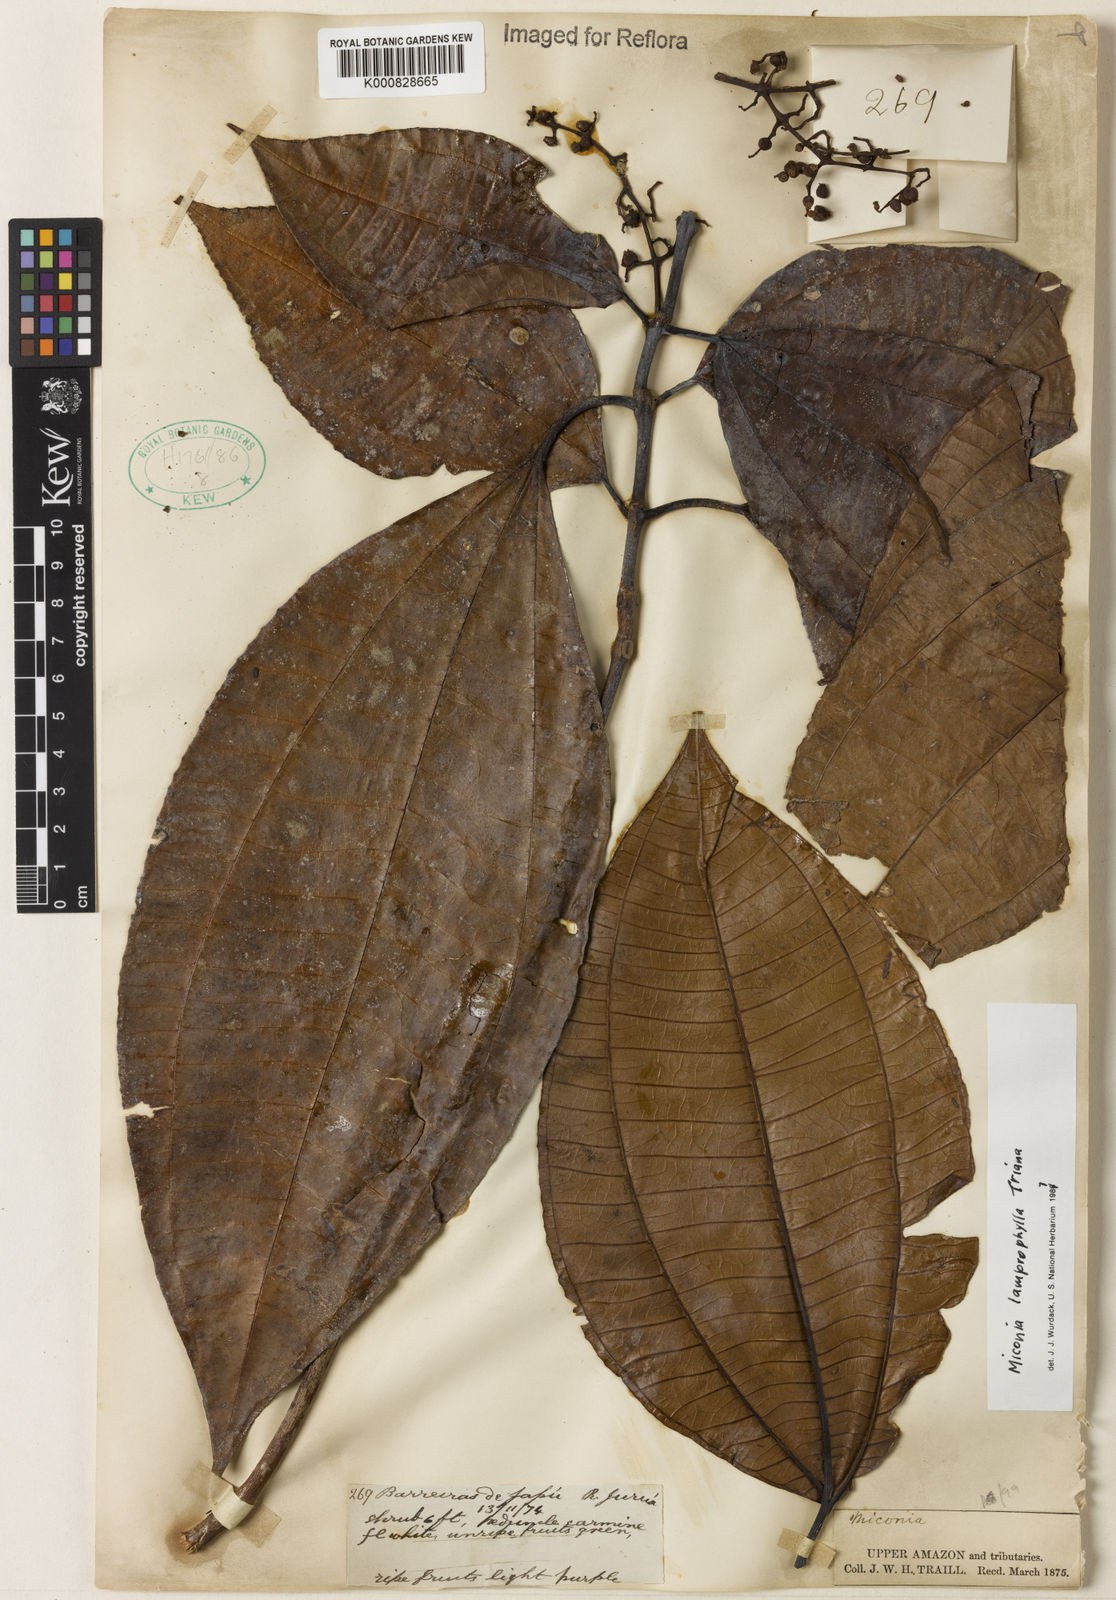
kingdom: Plantae
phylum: Tracheophyta
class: Magnoliopsida
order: Myrtales
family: Melastomataceae
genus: Miconia
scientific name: Miconia lamprophylla
